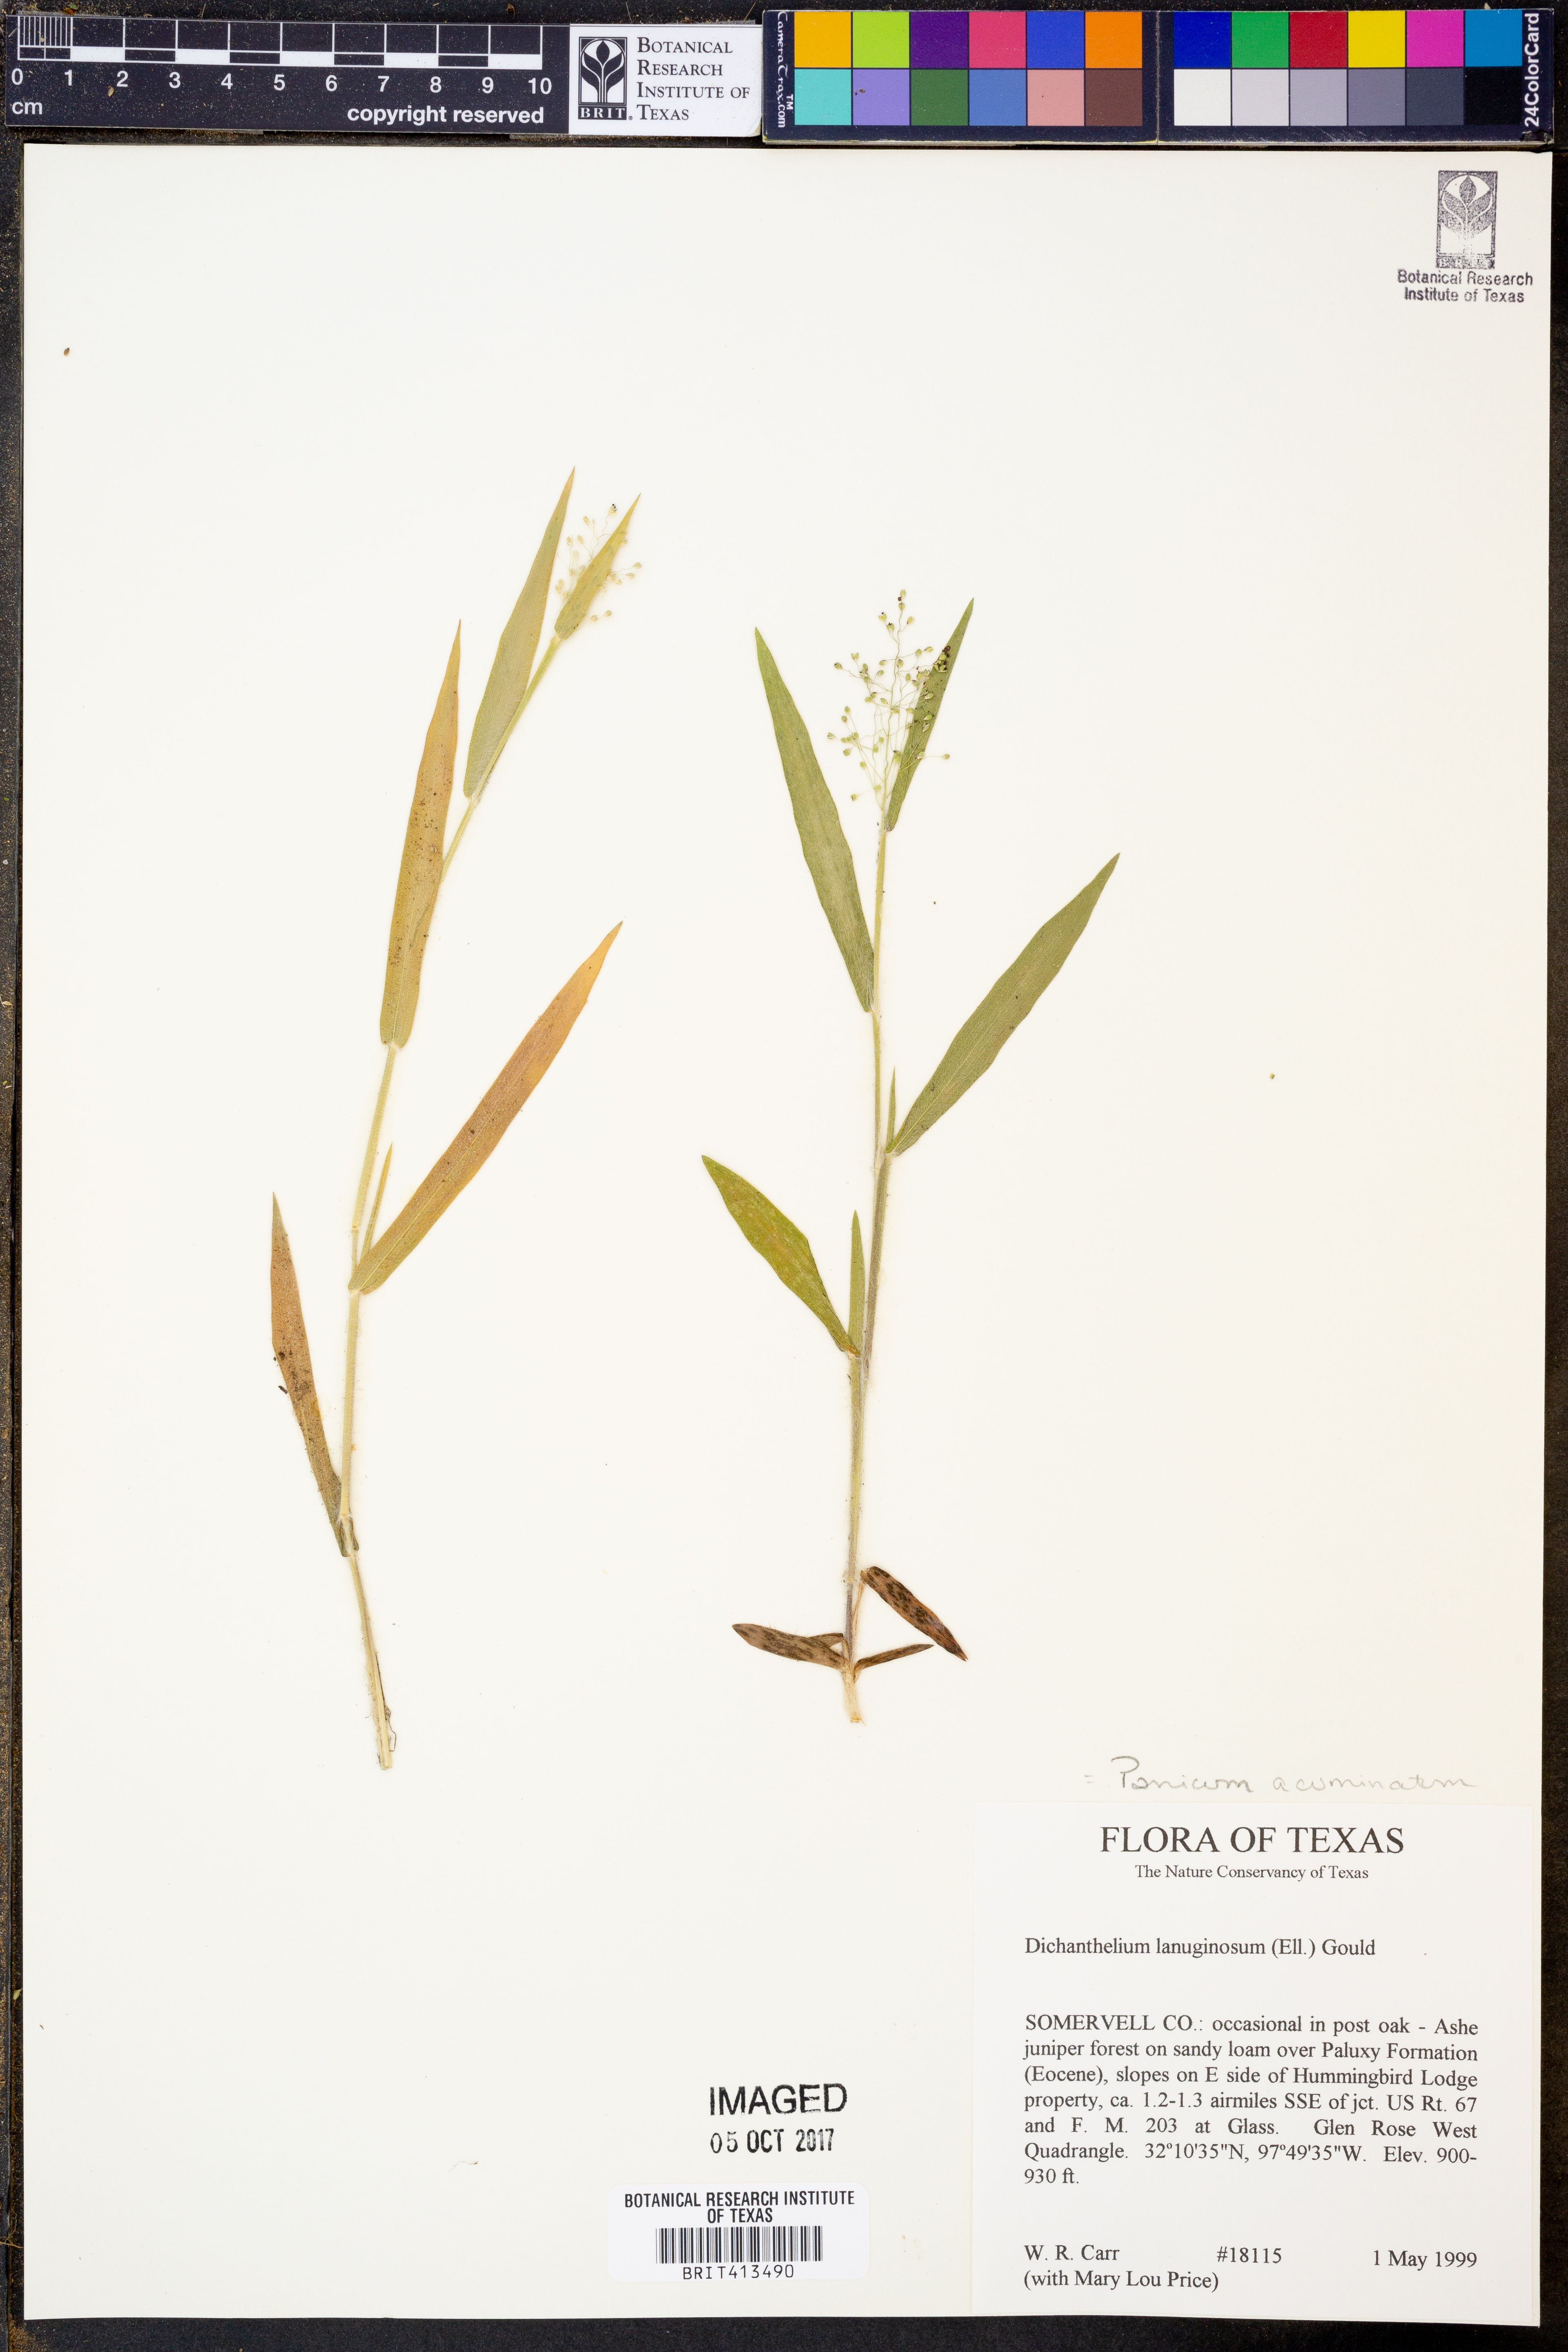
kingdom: Plantae
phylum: Tracheophyta
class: Liliopsida
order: Poales
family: Poaceae
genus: Dichanthelium
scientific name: Dichanthelium lanuginosum
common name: Woolly panicgrass
